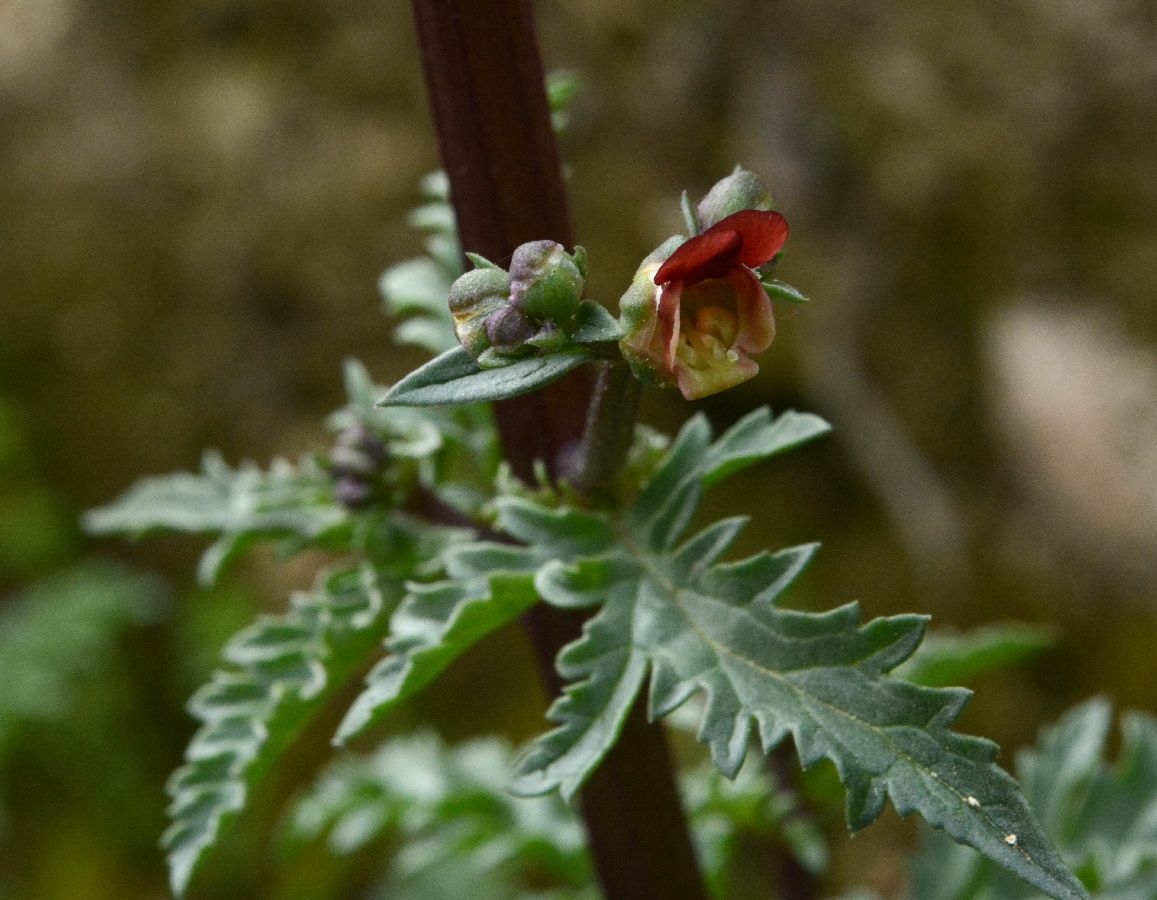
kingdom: Plantae
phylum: Tracheophyta
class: Magnoliopsida
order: Lamiales
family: Scrophulariaceae
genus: Scrophularia
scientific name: Scrophularia lucida
